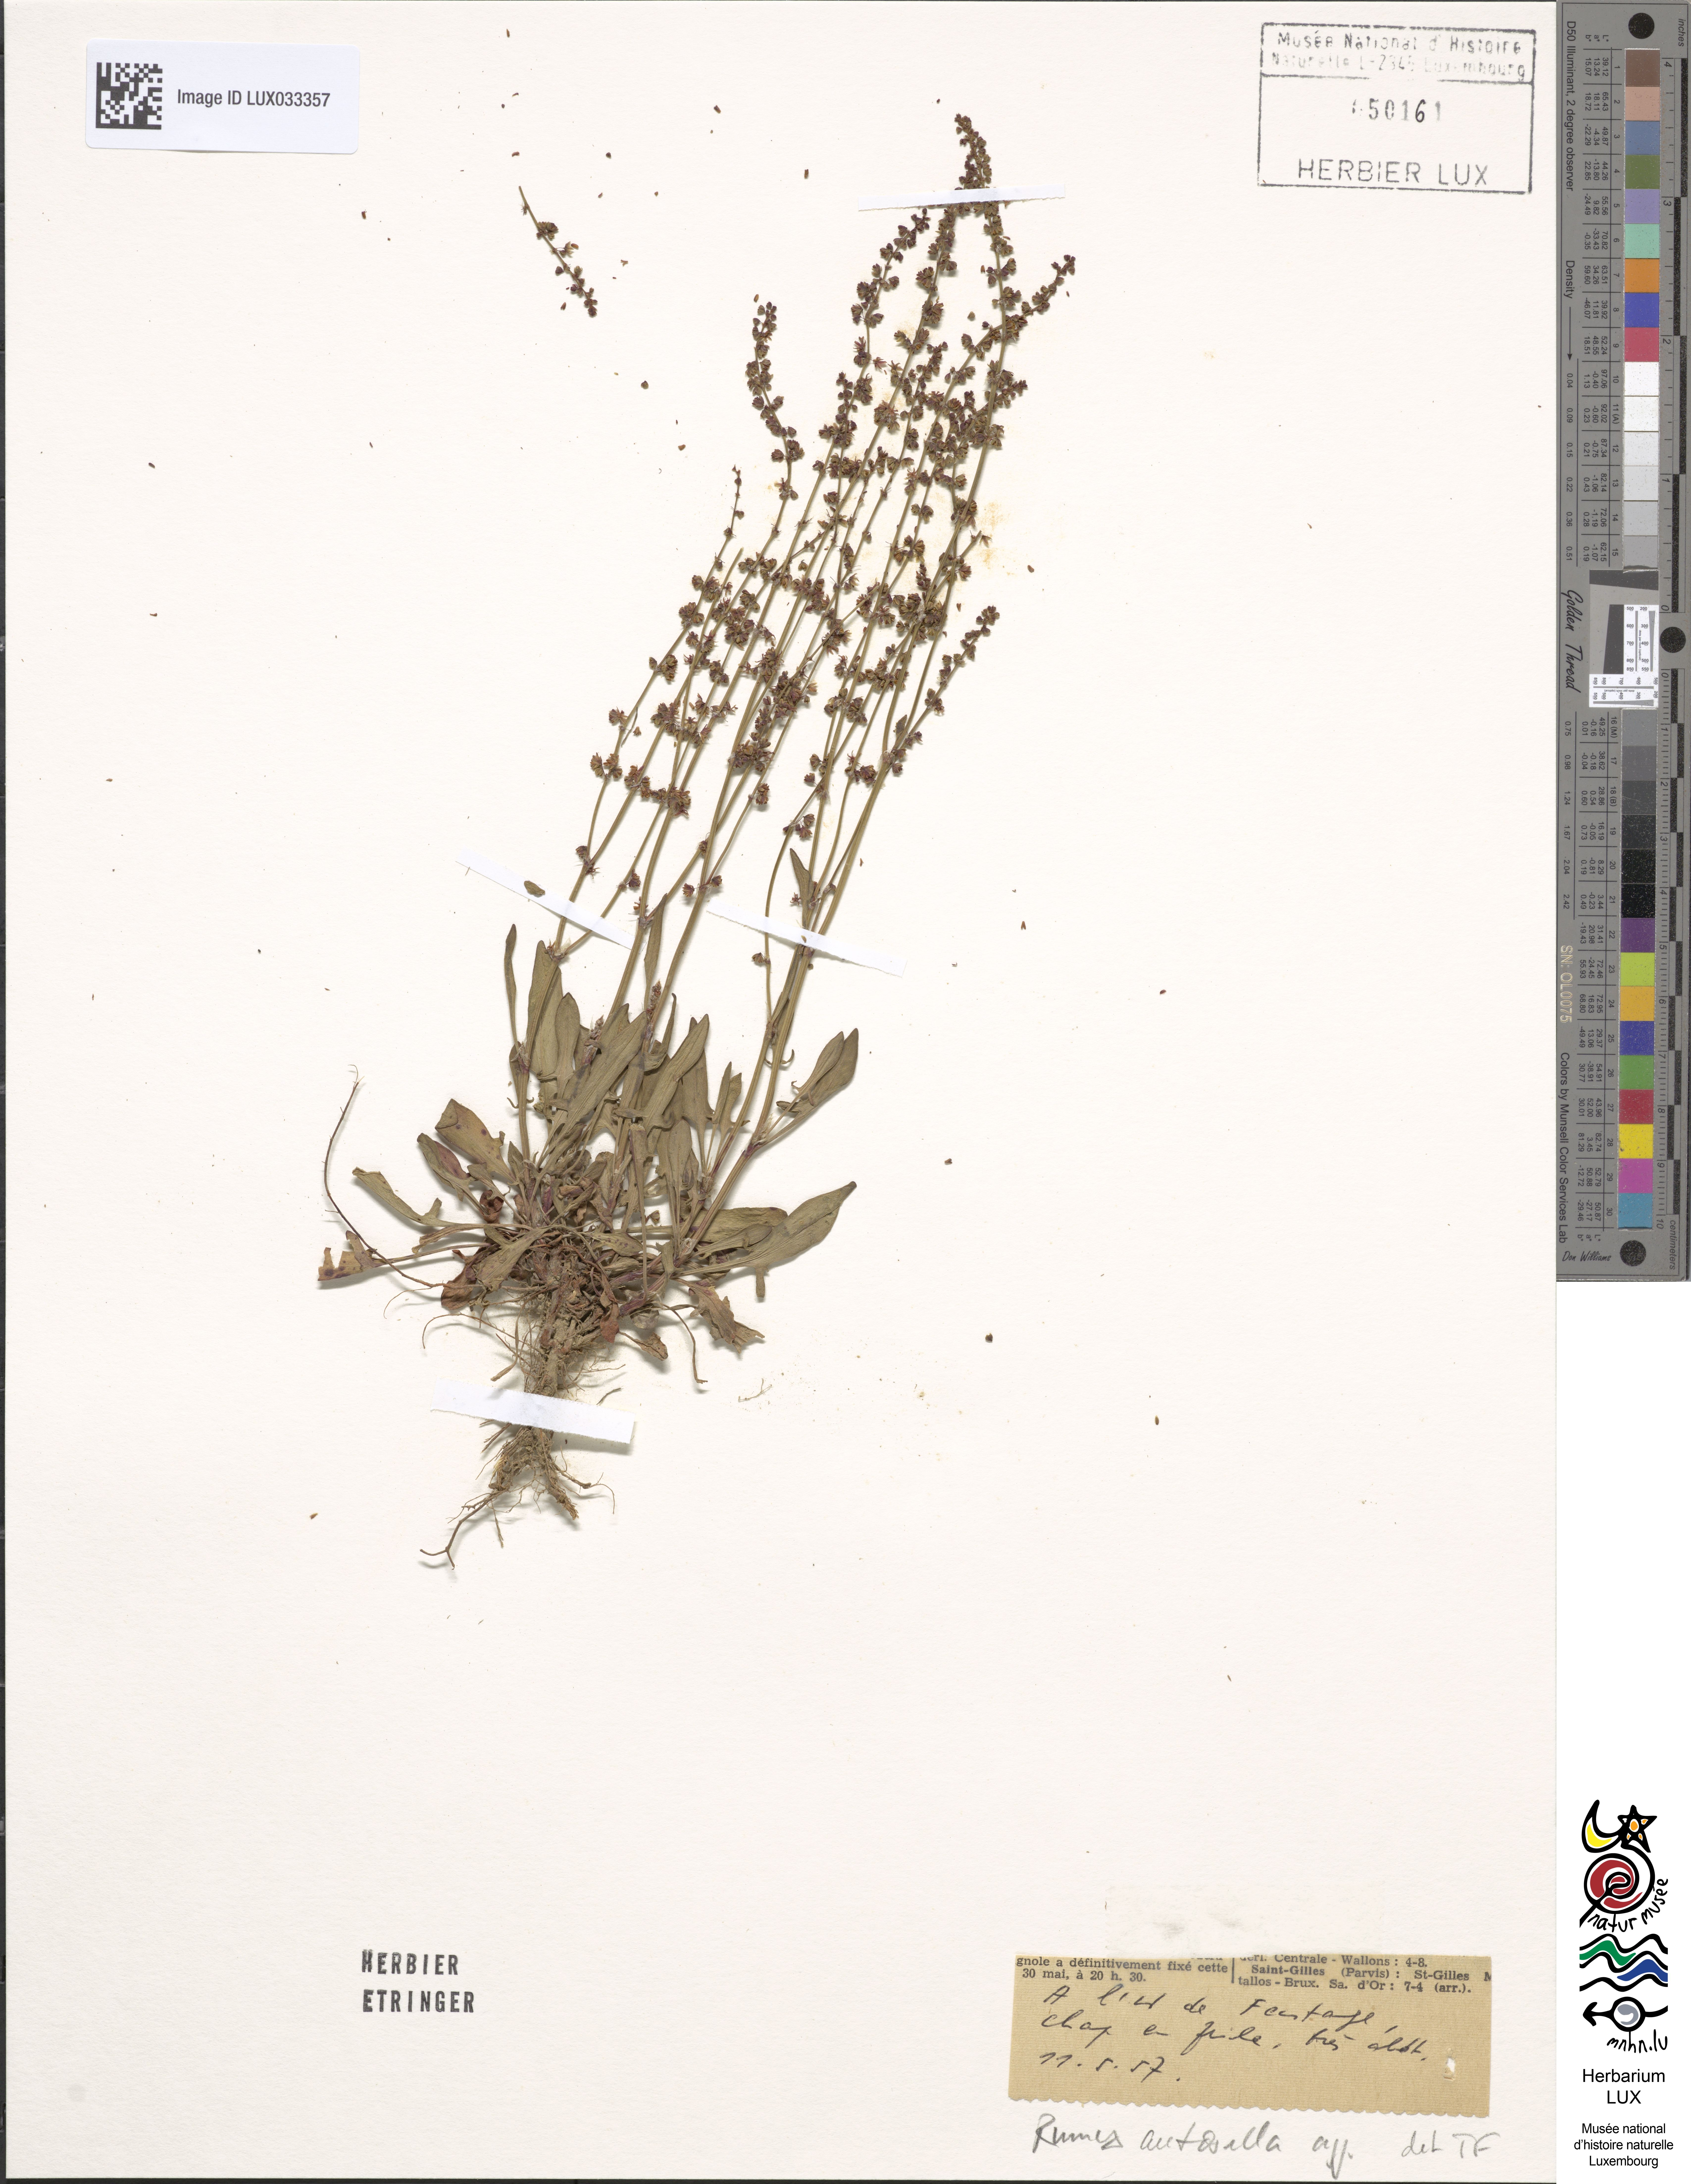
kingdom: Plantae
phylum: Tracheophyta
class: Magnoliopsida
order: Caryophyllales
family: Polygonaceae
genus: Rumex
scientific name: Rumex acetosella
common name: Common sheep sorrel
